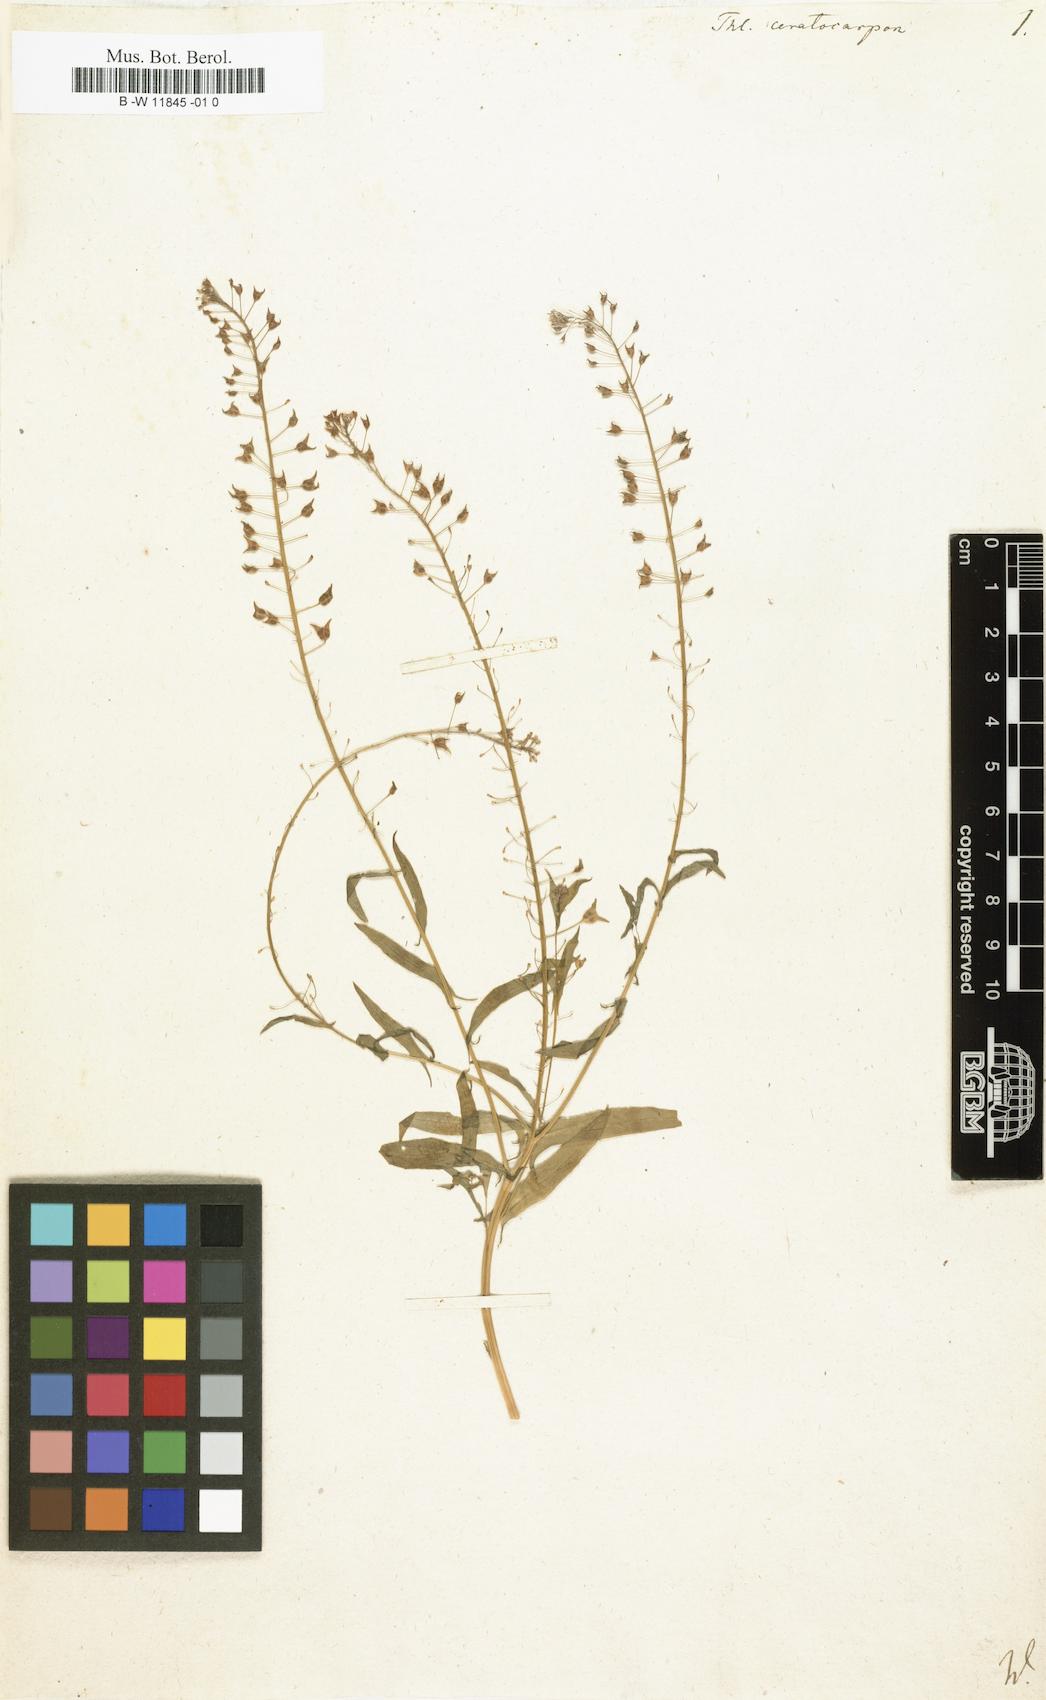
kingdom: Plantae
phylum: Tracheophyta
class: Magnoliopsida
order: Brassicales
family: Brassicaceae
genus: Thlaspi
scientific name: Thlaspi ceratocarpum
